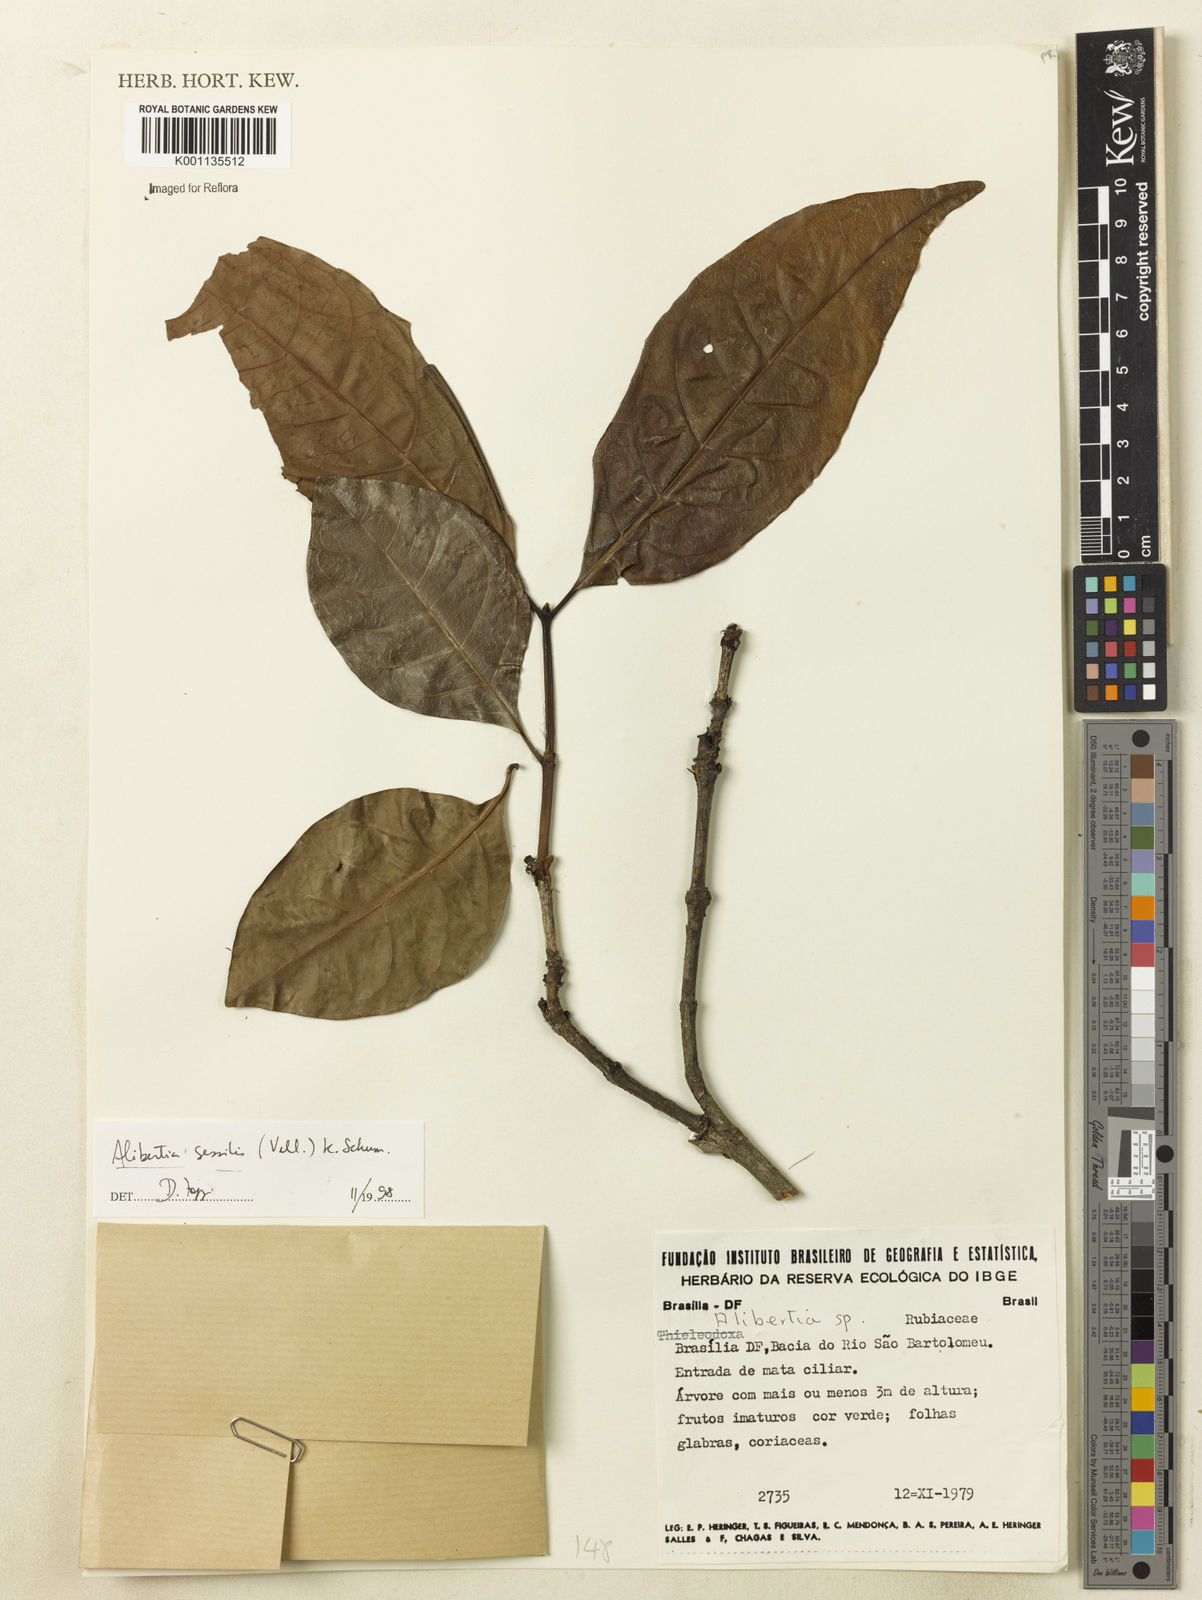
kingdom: Plantae
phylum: Tracheophyta
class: Magnoliopsida
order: Gentianales
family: Rubiaceae
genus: Cordiera
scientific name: Cordiera sessilis
